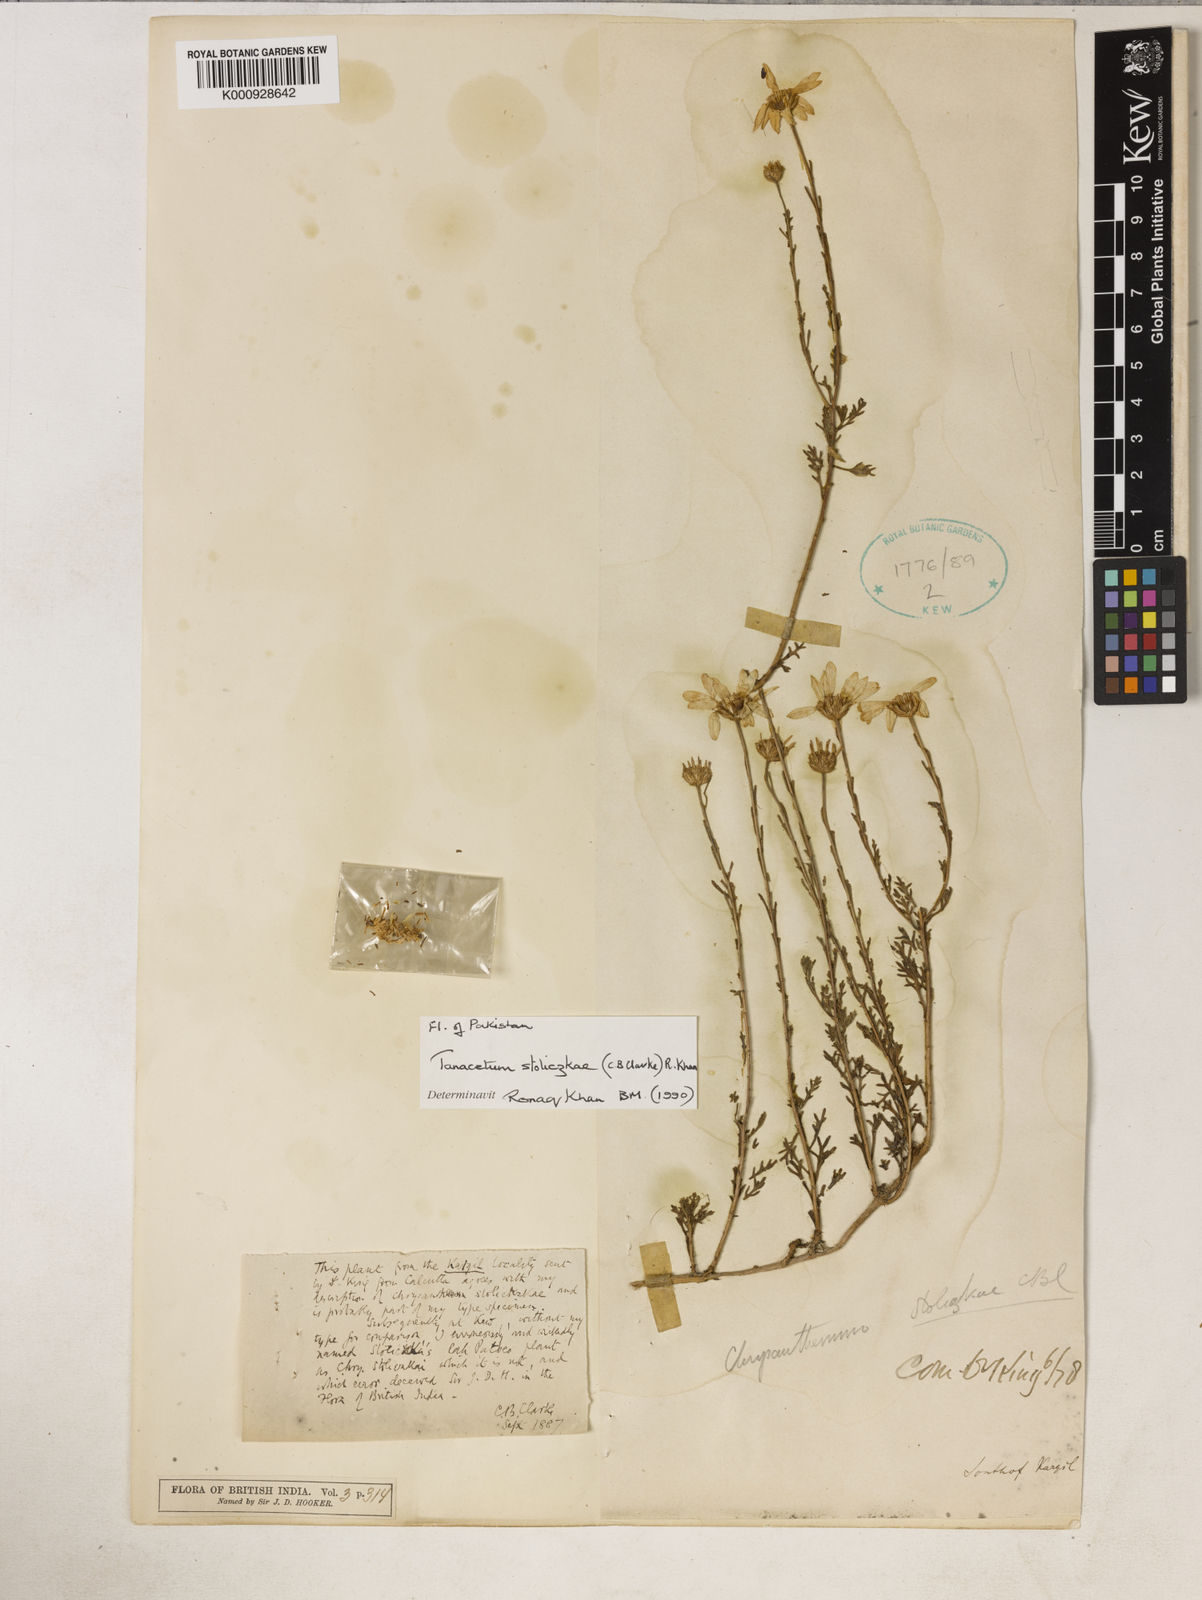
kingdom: Plantae
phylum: Tracheophyta
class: Magnoliopsida
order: Asterales
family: Asteraceae
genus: Tanacetum
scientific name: Tanacetum stoliczkae
